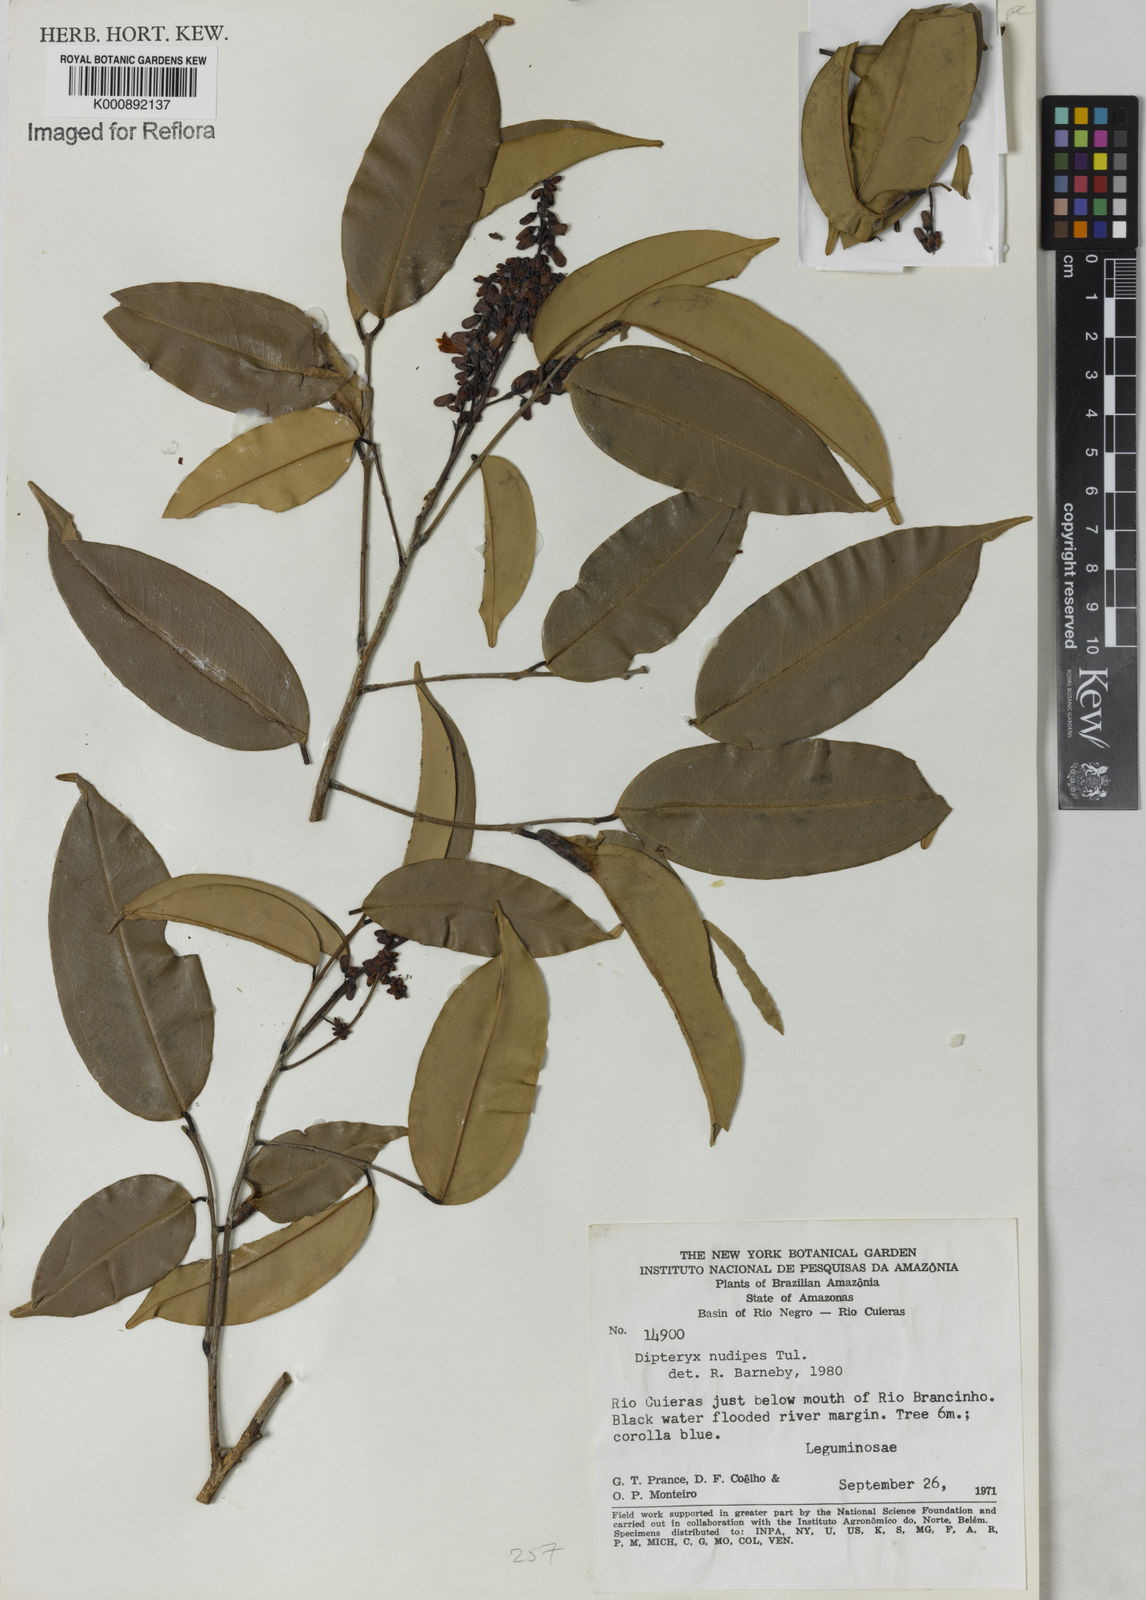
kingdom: Plantae
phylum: Tracheophyta
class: Magnoliopsida
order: Fabales
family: Fabaceae
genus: Taralea
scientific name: Taralea nudipes
